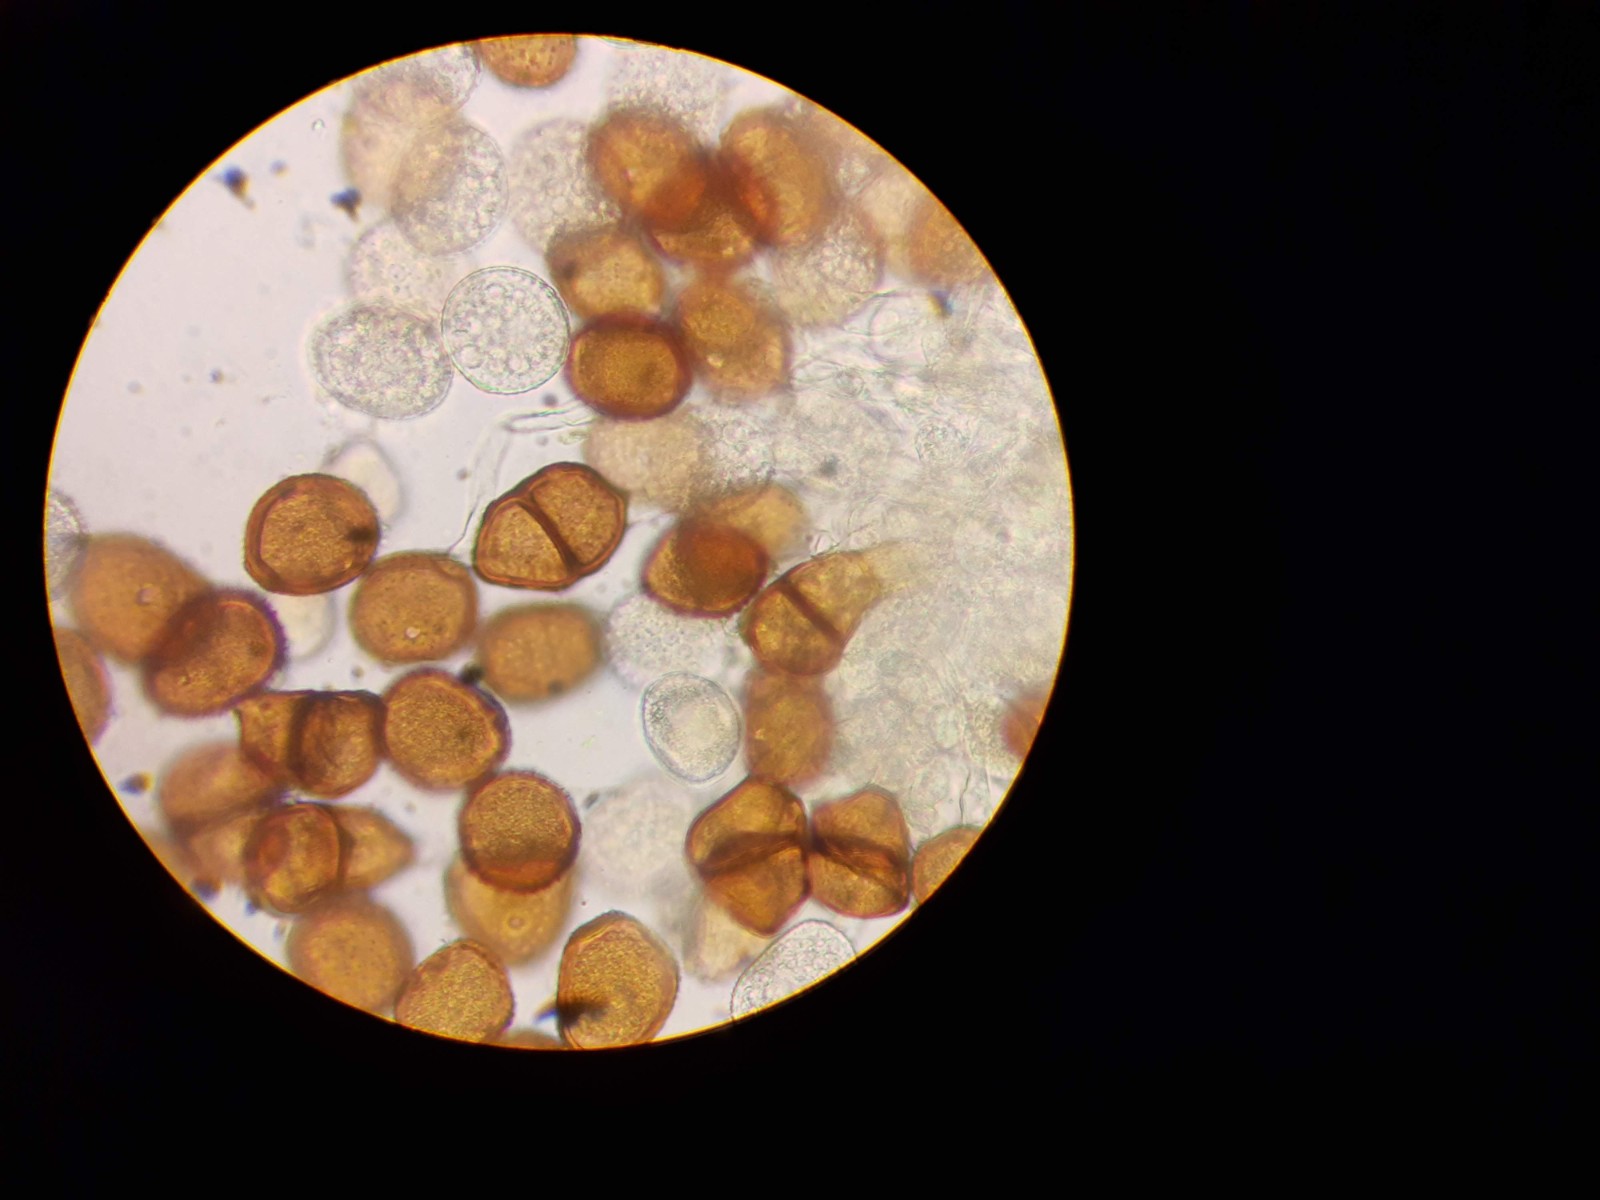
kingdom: Fungi
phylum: Basidiomycota
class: Pucciniomycetes
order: Pucciniales
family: Pucciniaceae
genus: Puccinia
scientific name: Puccinia hieracii
